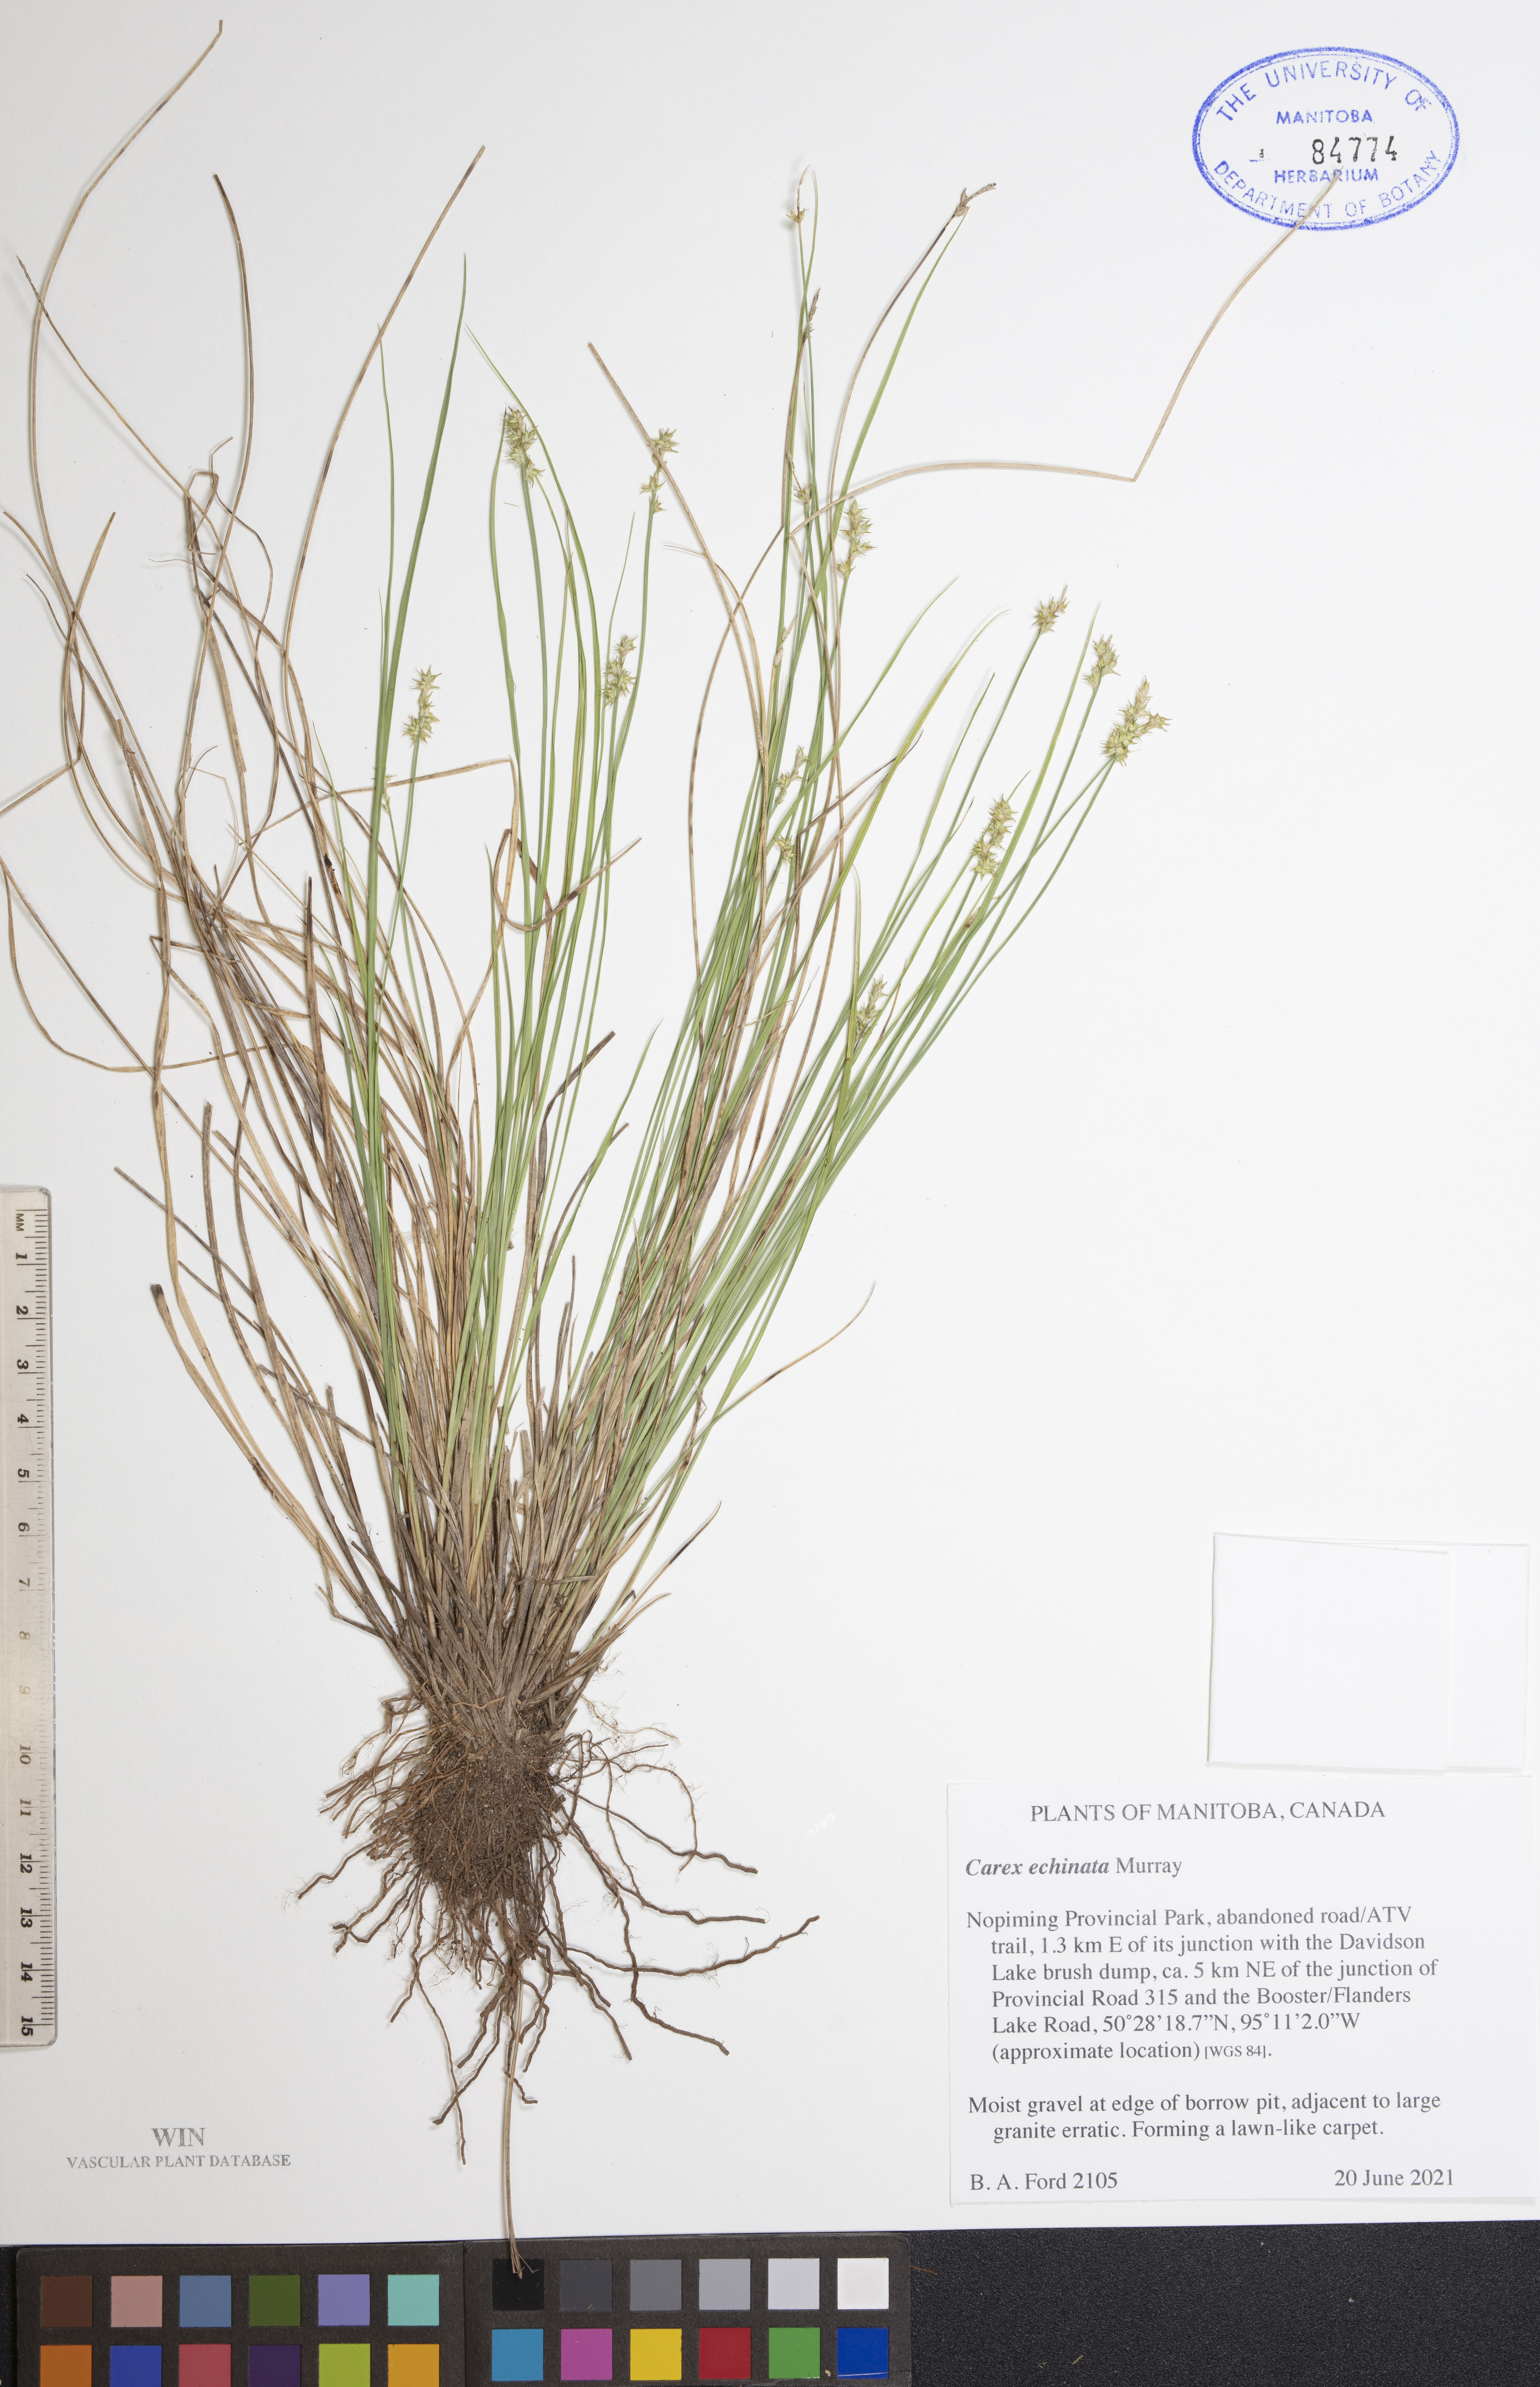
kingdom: Plantae
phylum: Tracheophyta
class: Liliopsida
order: Poales
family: Cyperaceae
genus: Carex
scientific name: Carex echinata
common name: Star sedge
